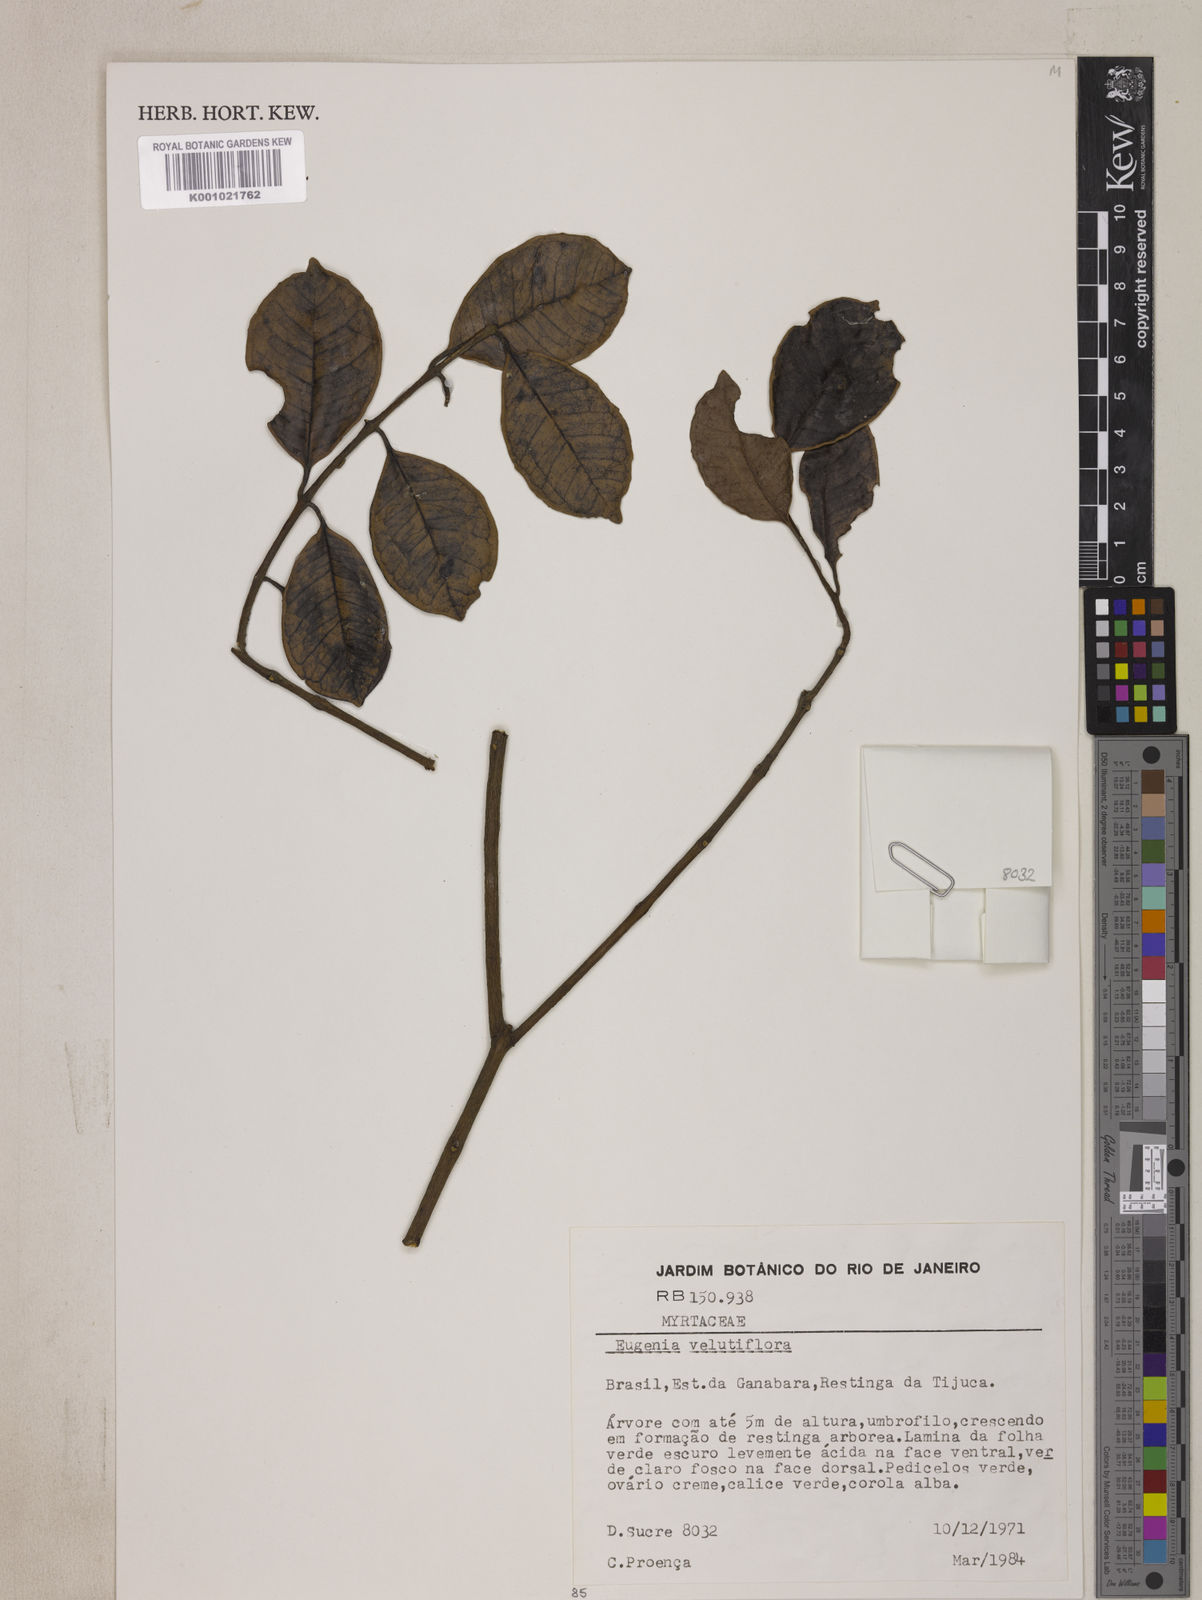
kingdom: Plantae
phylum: Tracheophyta
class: Magnoliopsida
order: Myrtales
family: Myrtaceae
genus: Eugenia
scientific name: Eugenia bahiensis
